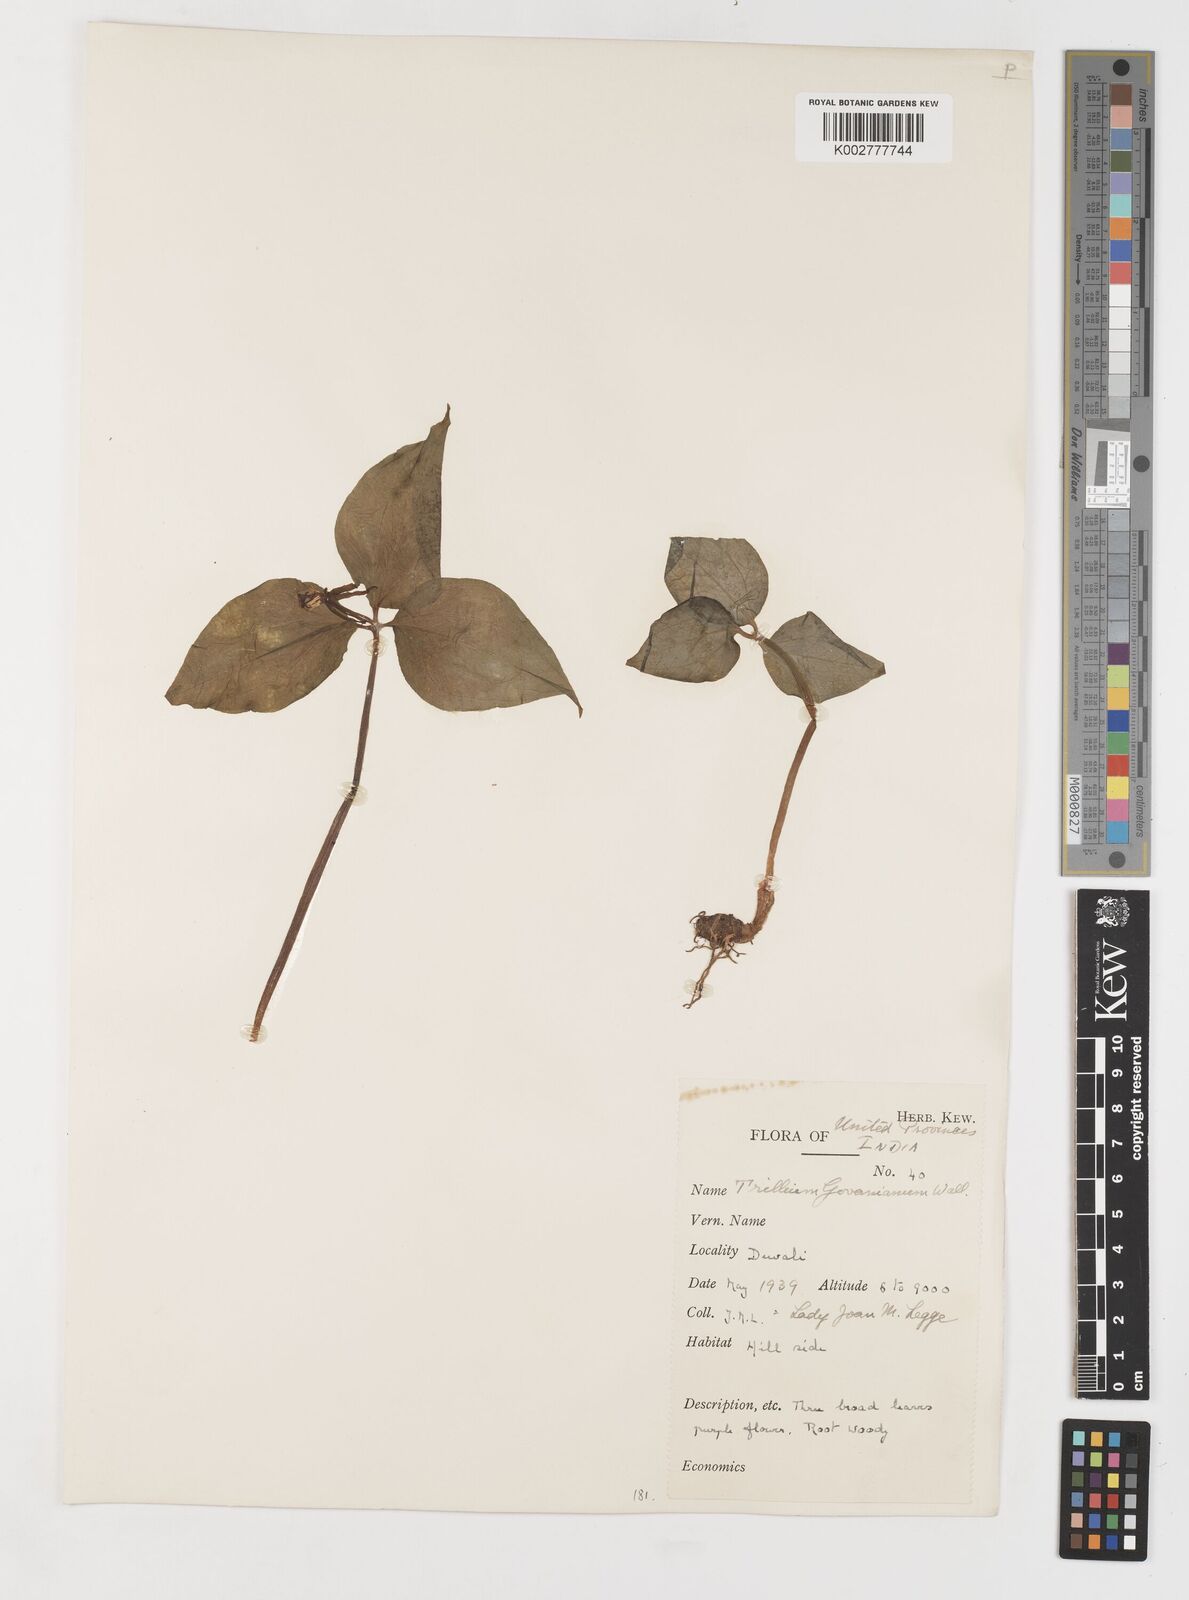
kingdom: Plantae
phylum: Tracheophyta
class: Liliopsida
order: Liliales
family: Melanthiaceae
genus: Trillium
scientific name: Trillium govanianum
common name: Himalayan trillium
